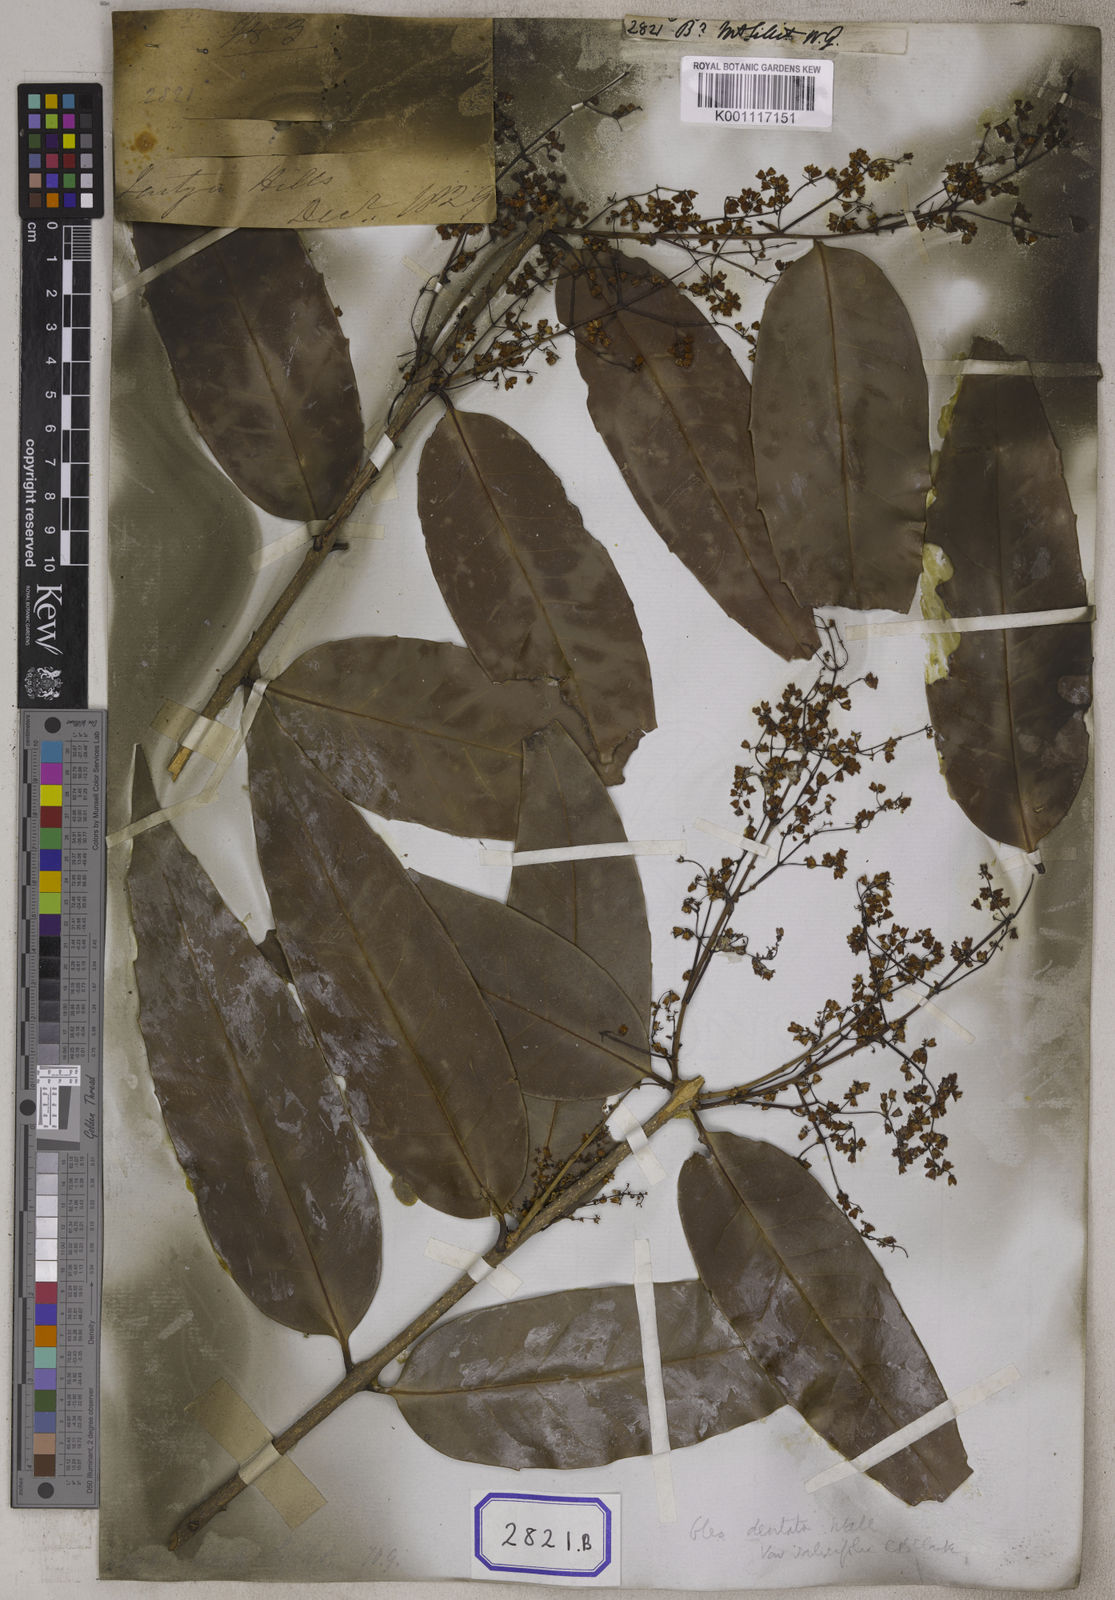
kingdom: Plantae
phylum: Tracheophyta
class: Magnoliopsida
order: Lamiales
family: Oleaceae
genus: Olea
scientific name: Olea
